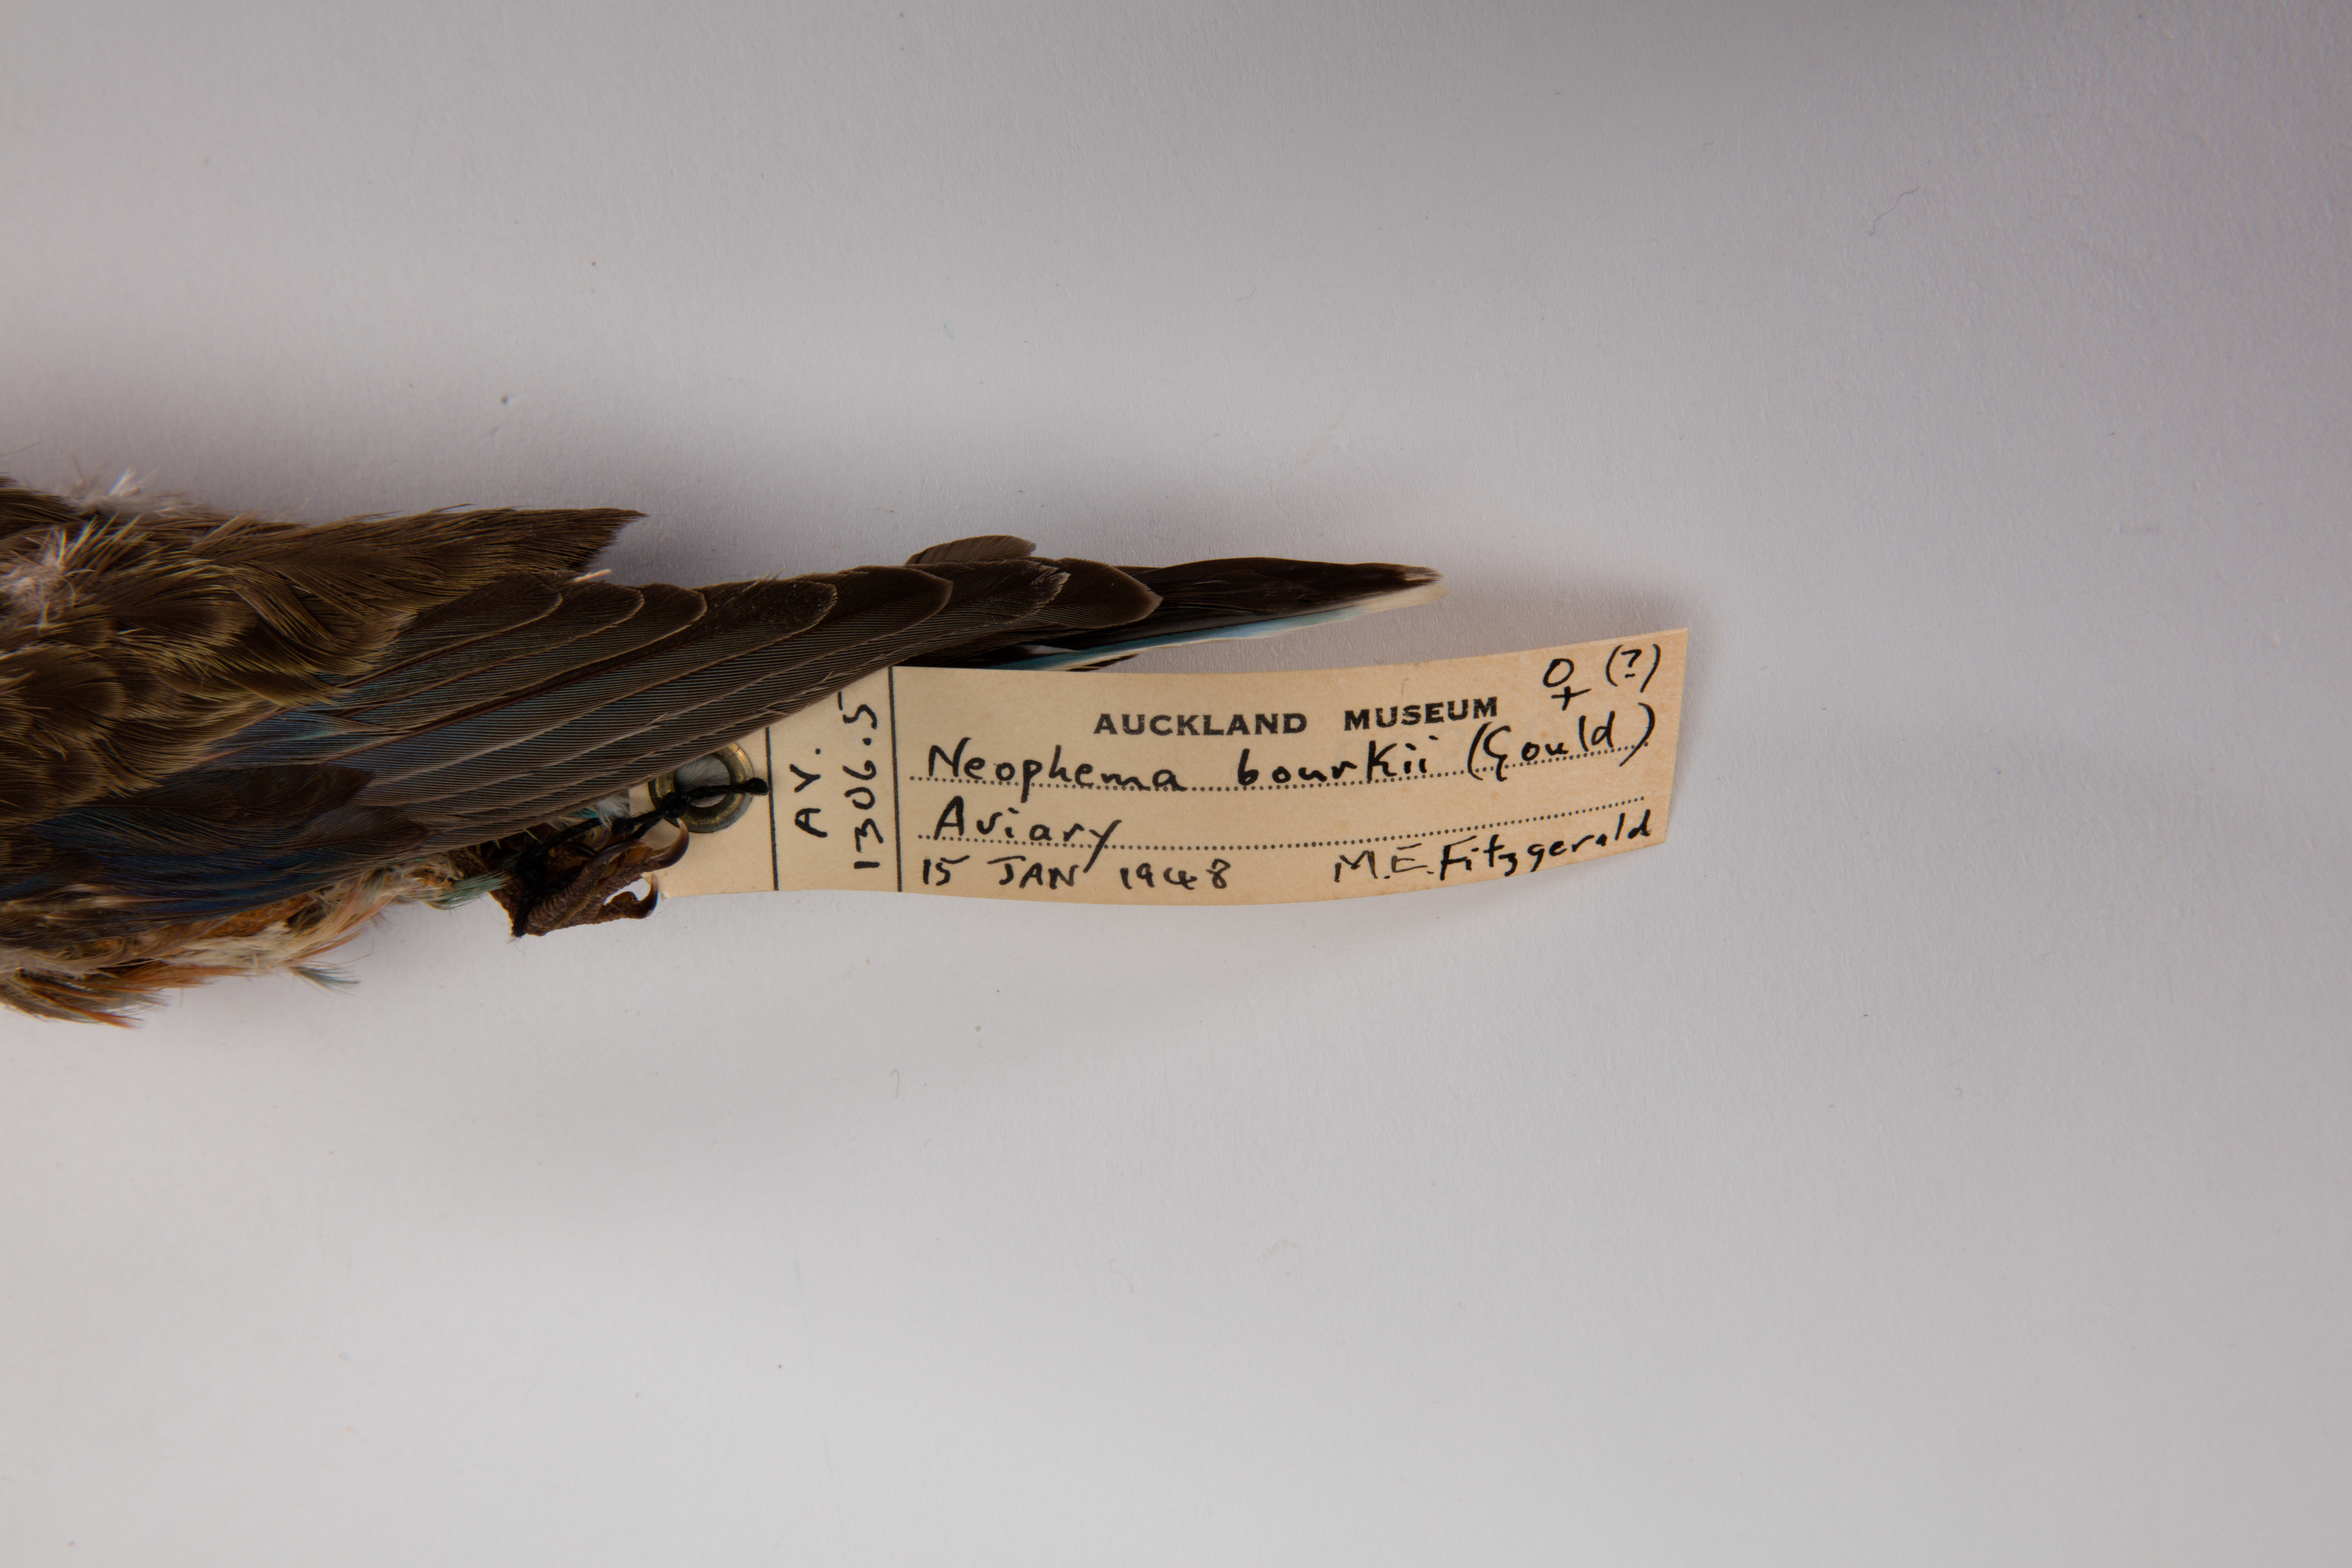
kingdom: Animalia
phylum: Chordata
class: Aves
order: Psittaciformes
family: Psittacidae
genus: Neopsephotus
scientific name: Neopsephotus bourkii
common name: Bourke's parrot
